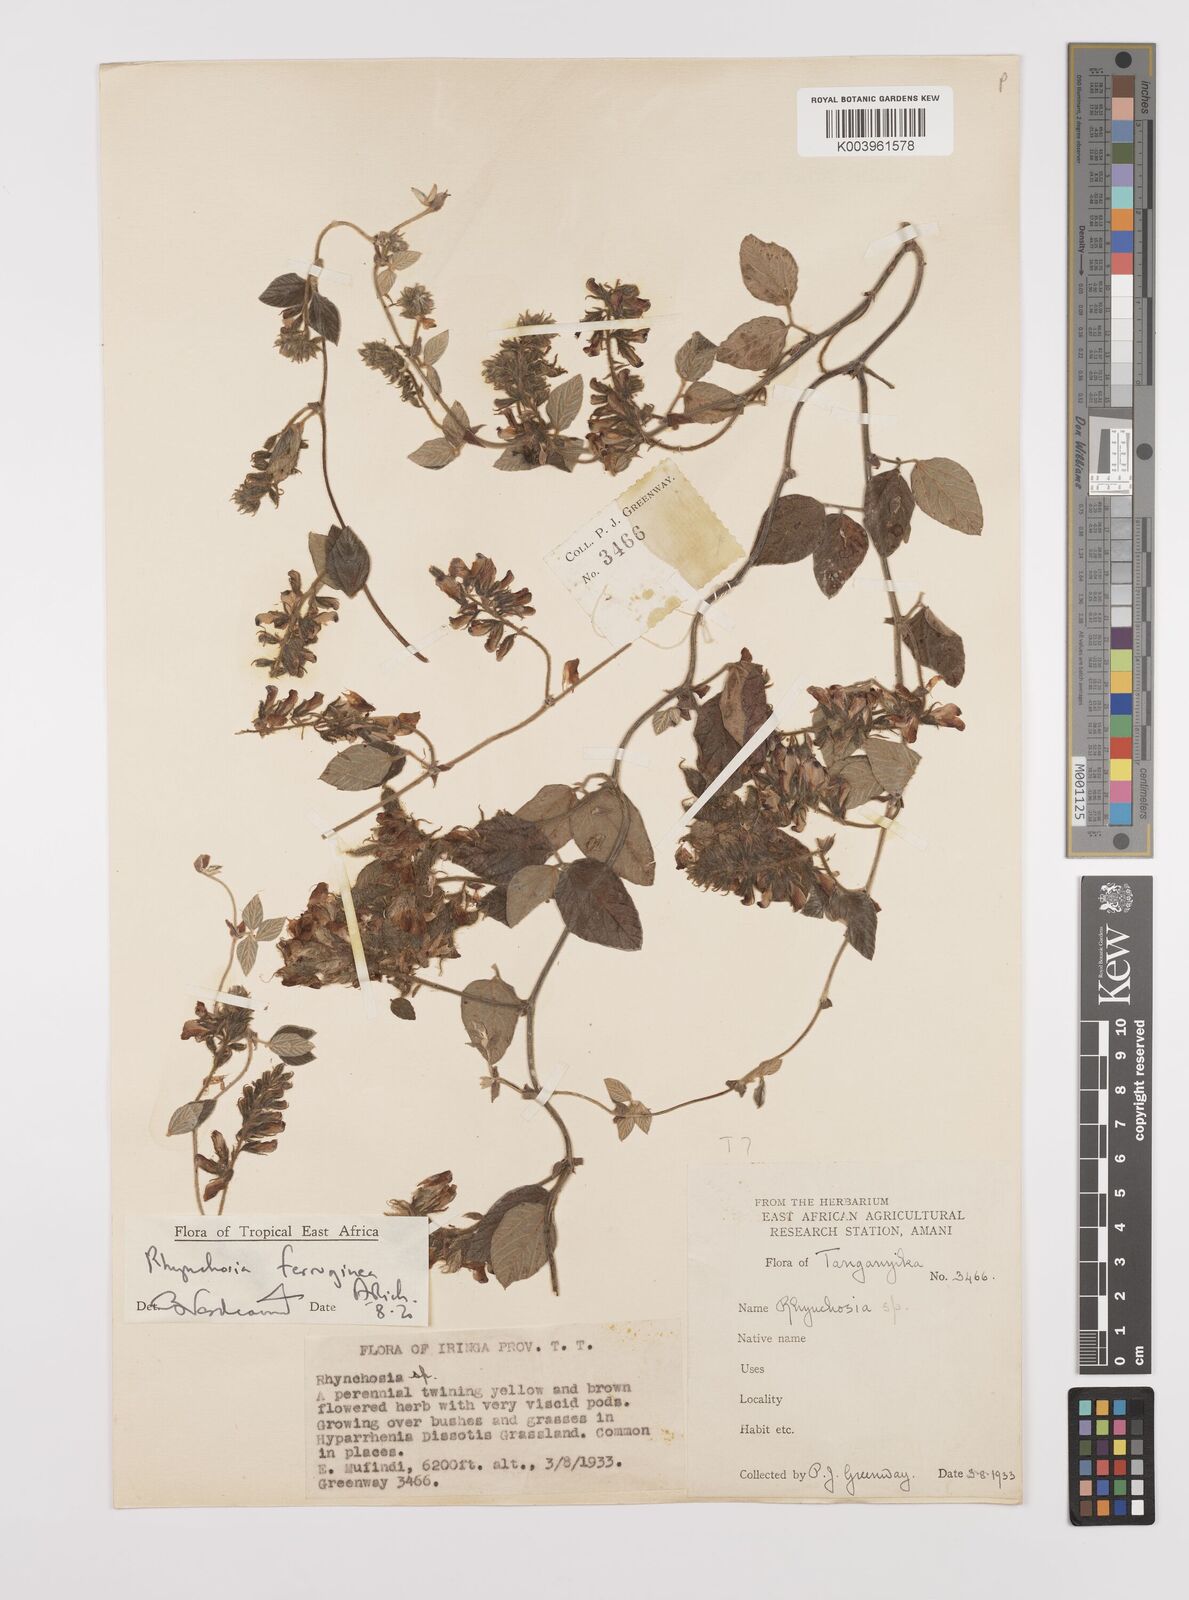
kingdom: Plantae
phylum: Tracheophyta
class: Magnoliopsida
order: Fabales
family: Fabaceae
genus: Rhynchosia
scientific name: Rhynchosia ferruginea
